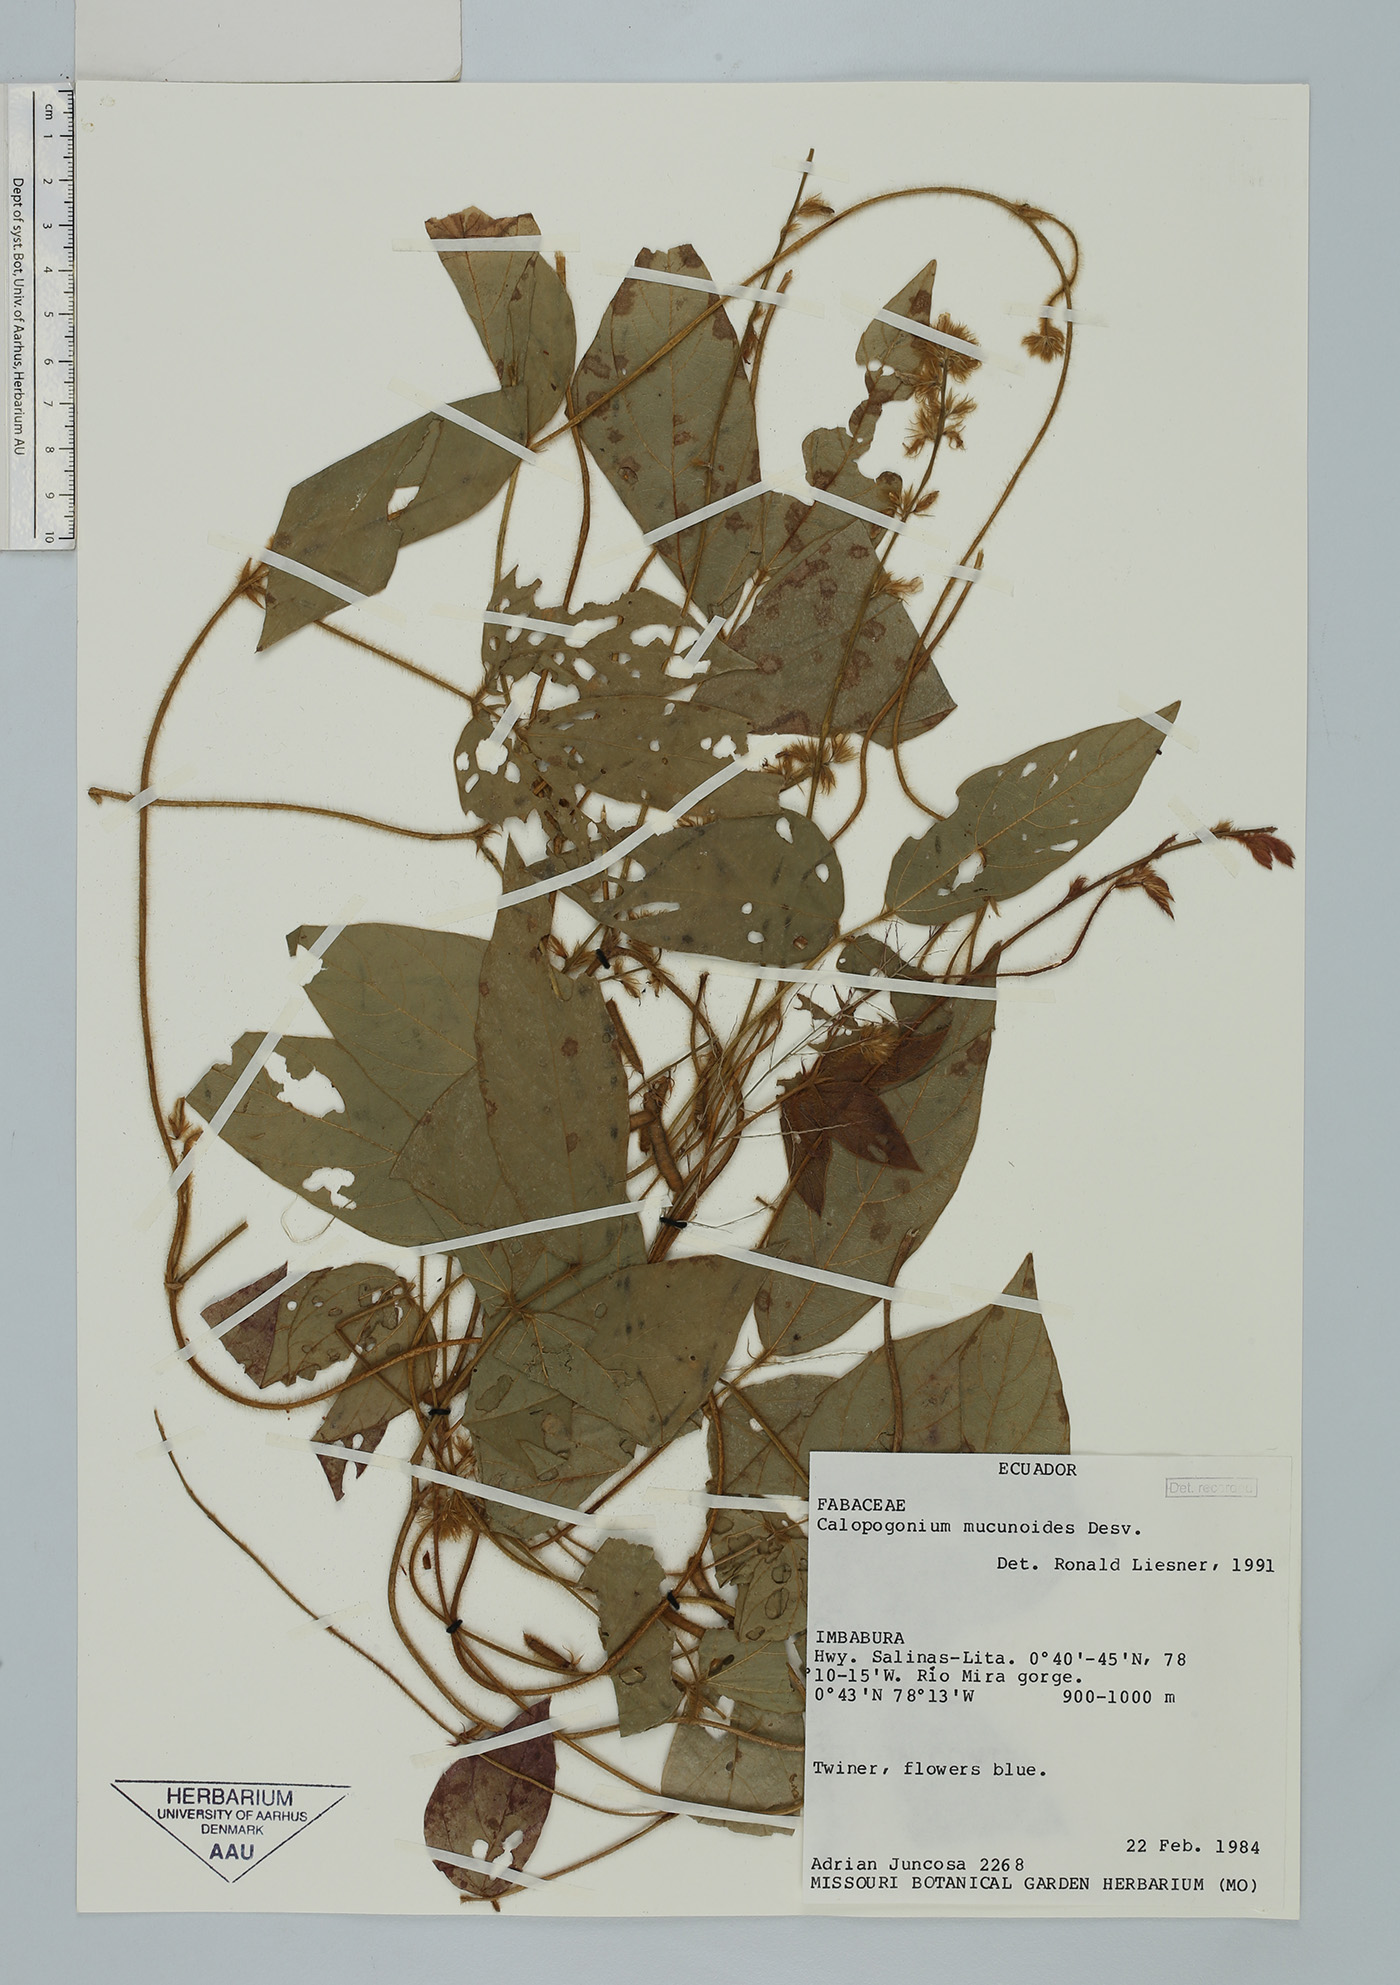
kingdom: Plantae
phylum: Tracheophyta
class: Magnoliopsida
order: Fabales
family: Fabaceae
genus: Calopogonium
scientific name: Calopogonium mucunoides
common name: Calopo
